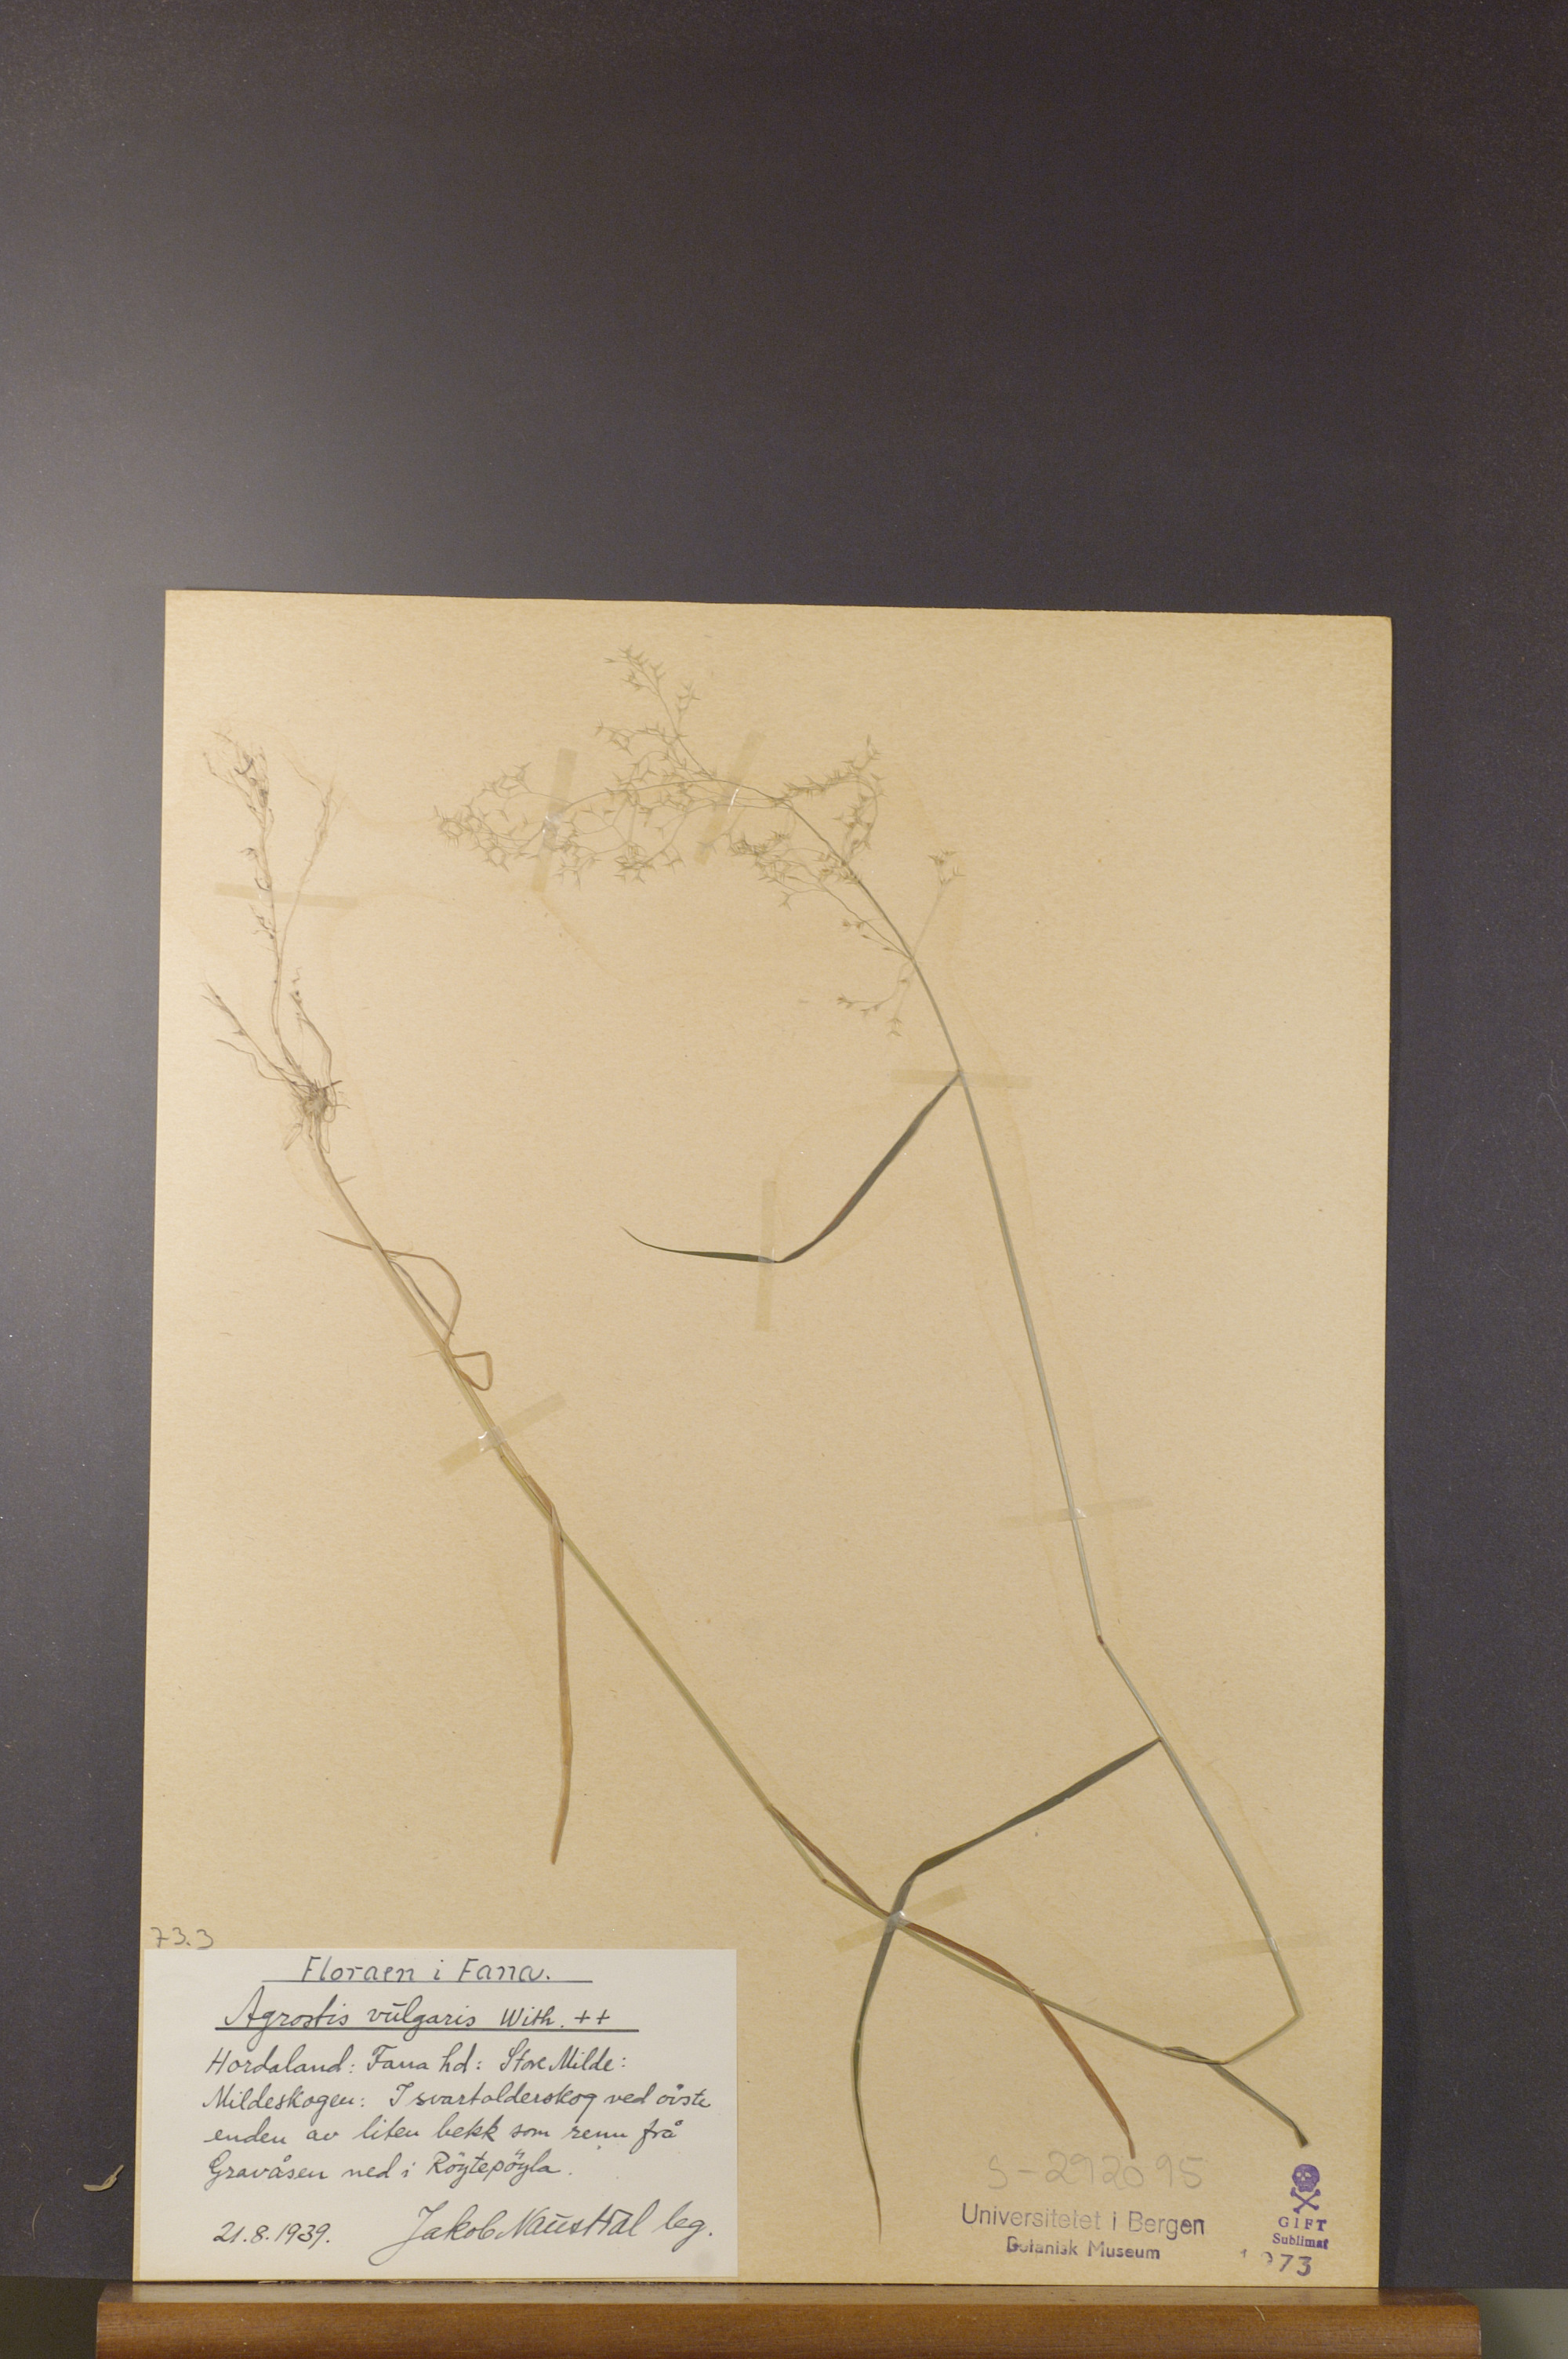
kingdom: Plantae
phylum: Tracheophyta
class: Liliopsida
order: Poales
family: Poaceae
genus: Agrostis
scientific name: Agrostis capillaris
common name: Colonial bentgrass
